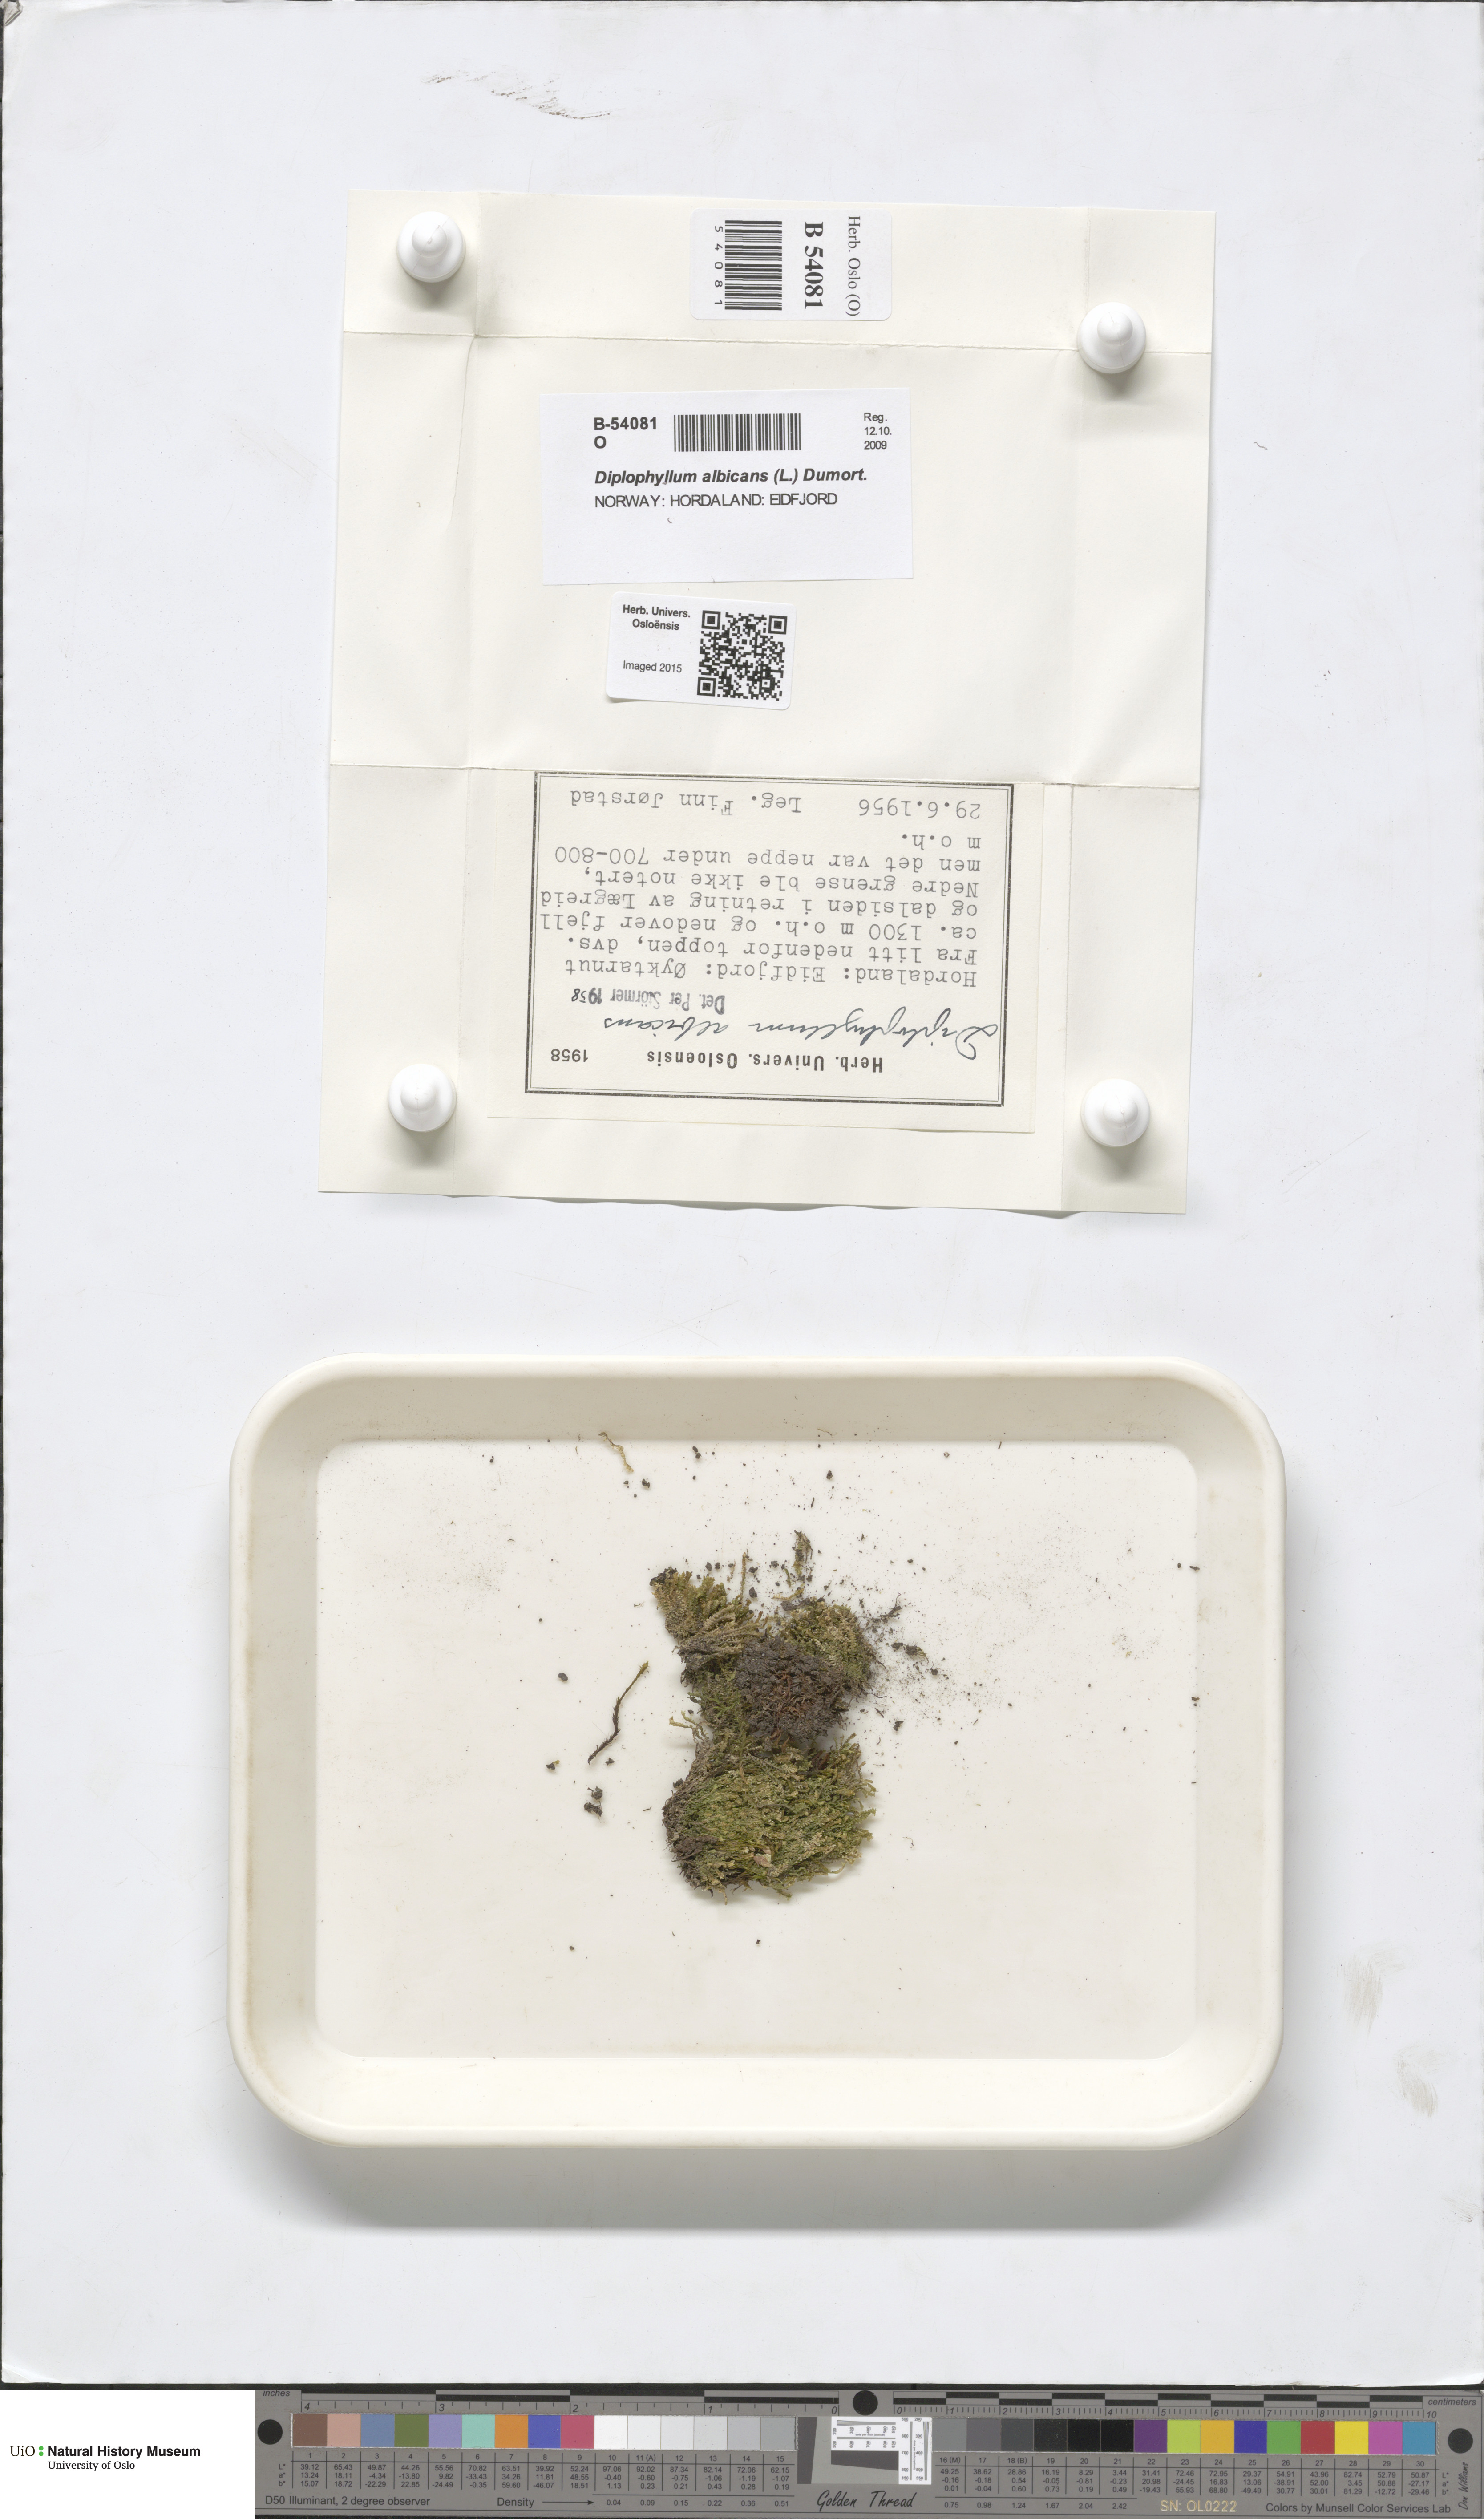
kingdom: Plantae
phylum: Marchantiophyta
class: Jungermanniopsida
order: Jungermanniales
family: Scapaniaceae
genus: Diplophyllum
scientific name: Diplophyllum albicans
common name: White earwort
